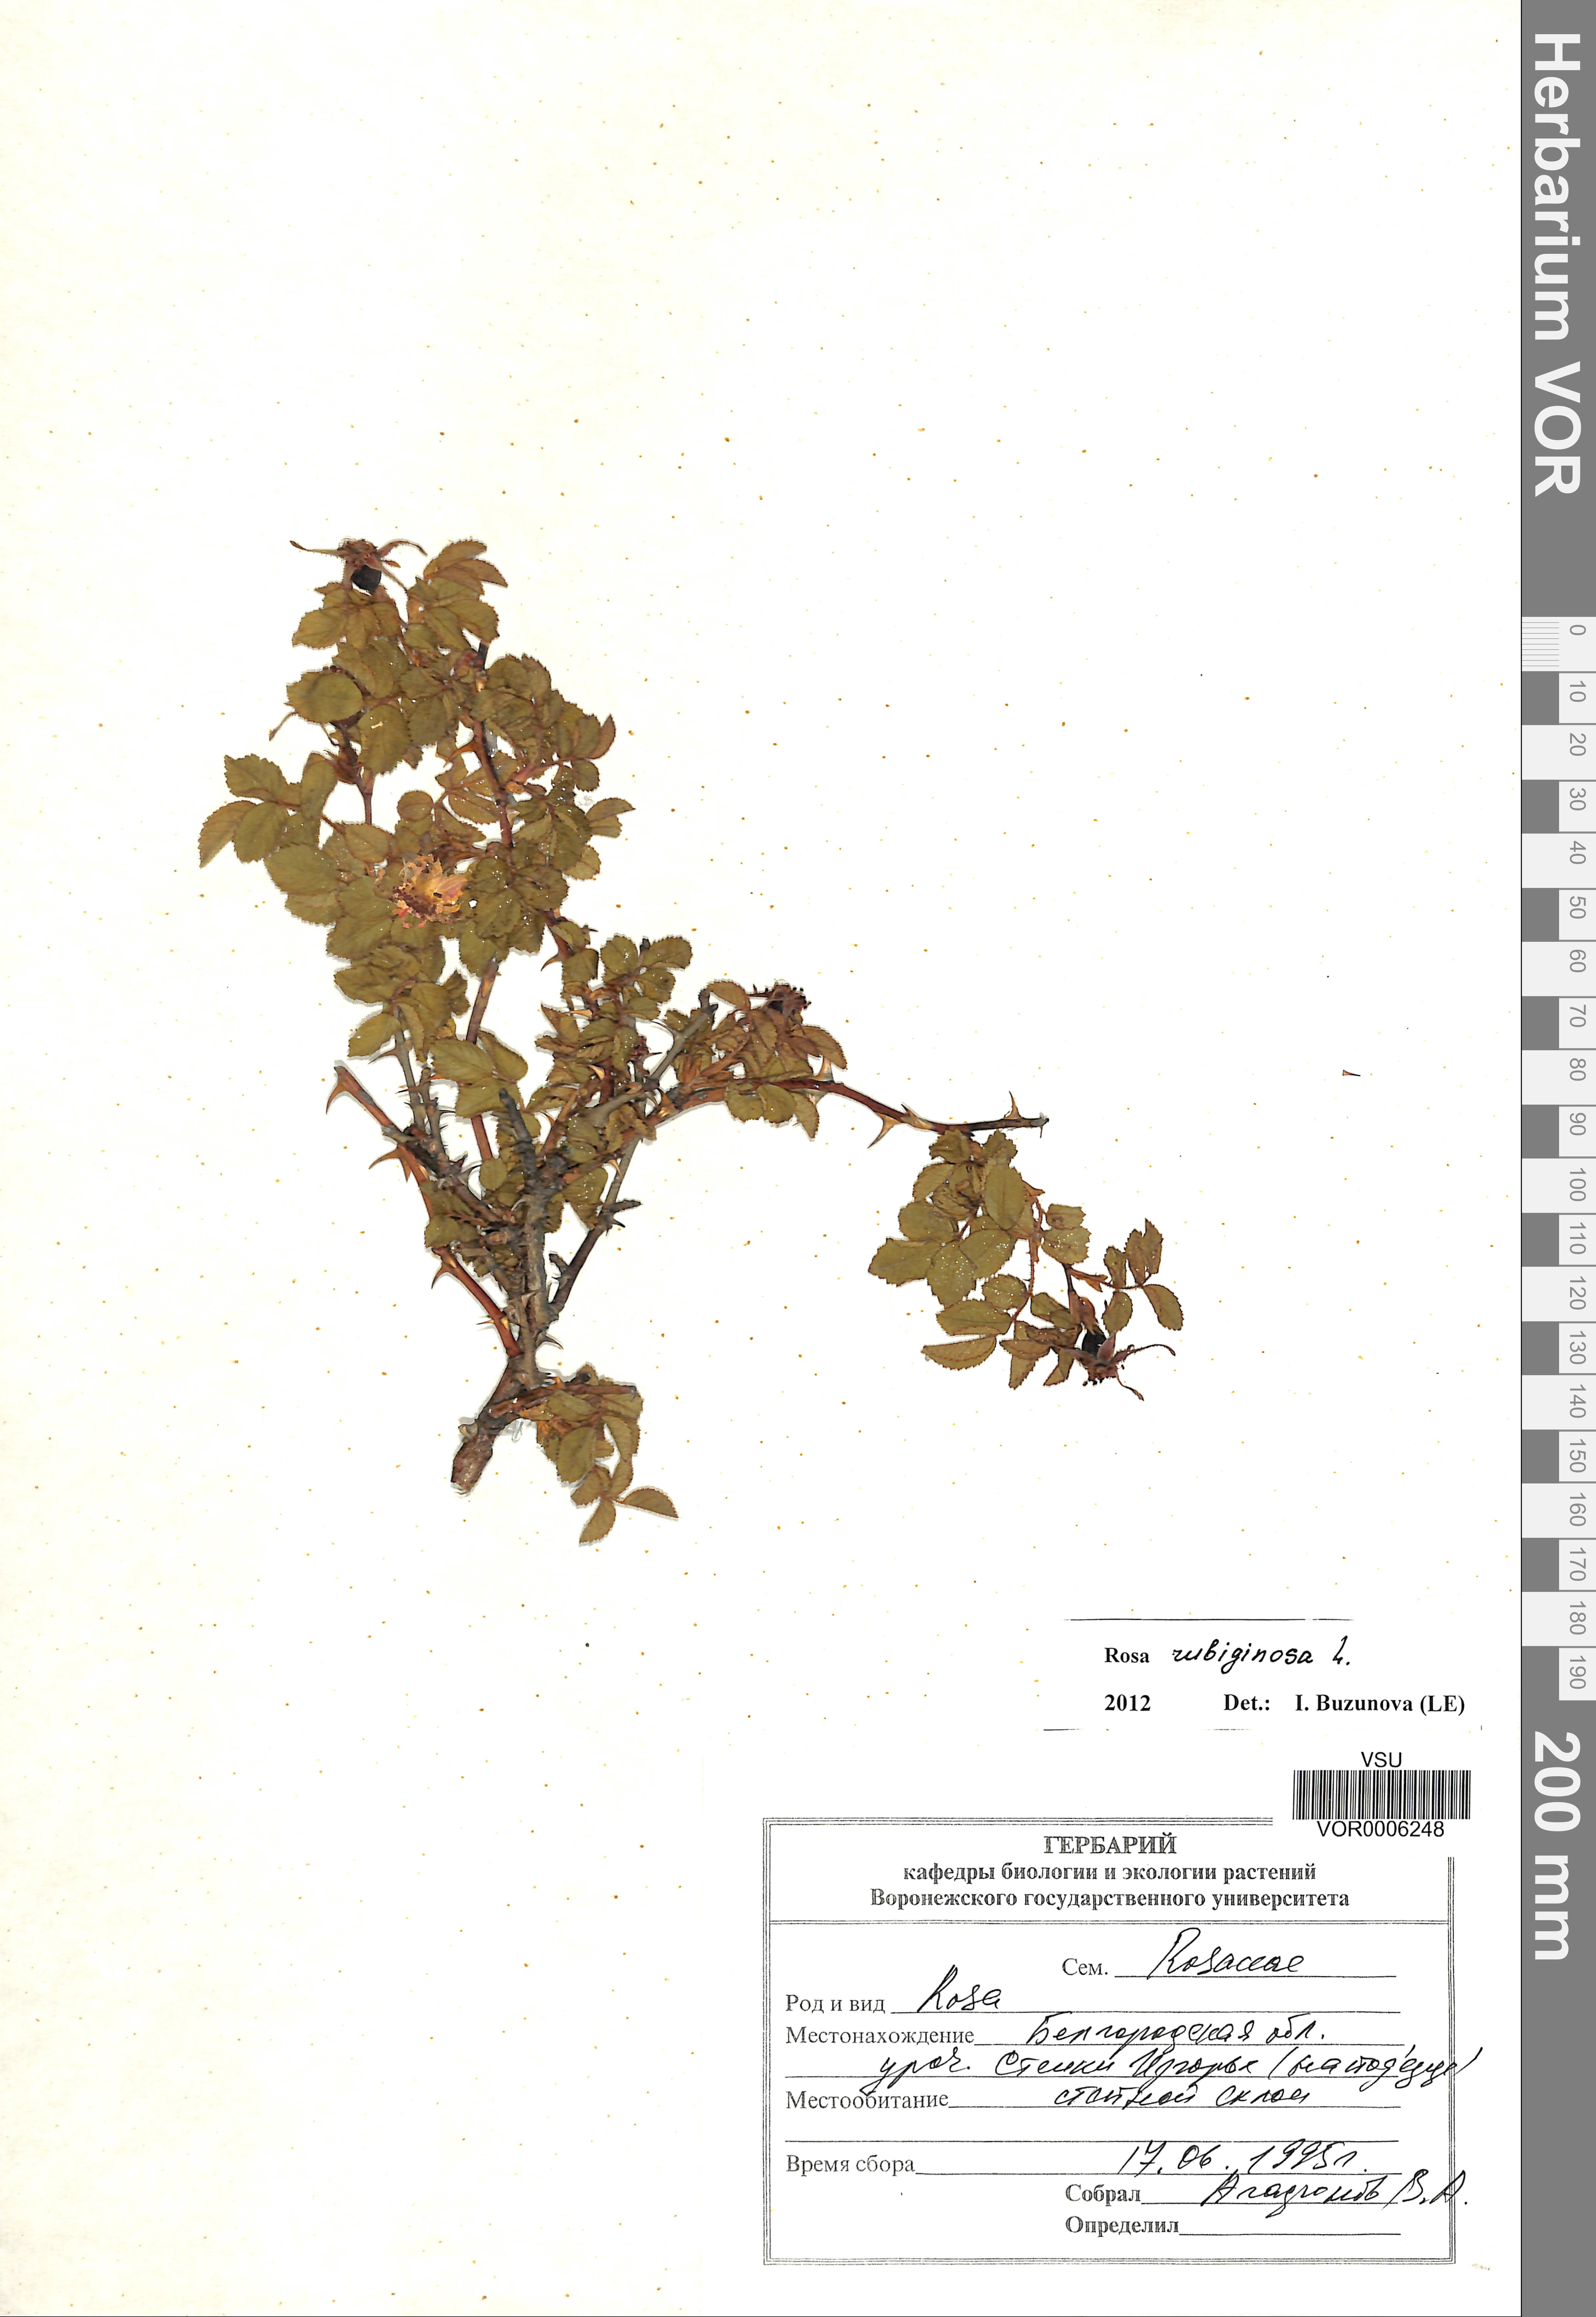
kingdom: Plantae
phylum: Tracheophyta
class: Magnoliopsida
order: Rosales
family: Rosaceae
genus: Rosa
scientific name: Rosa rubiginosa
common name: Sweet-briar
